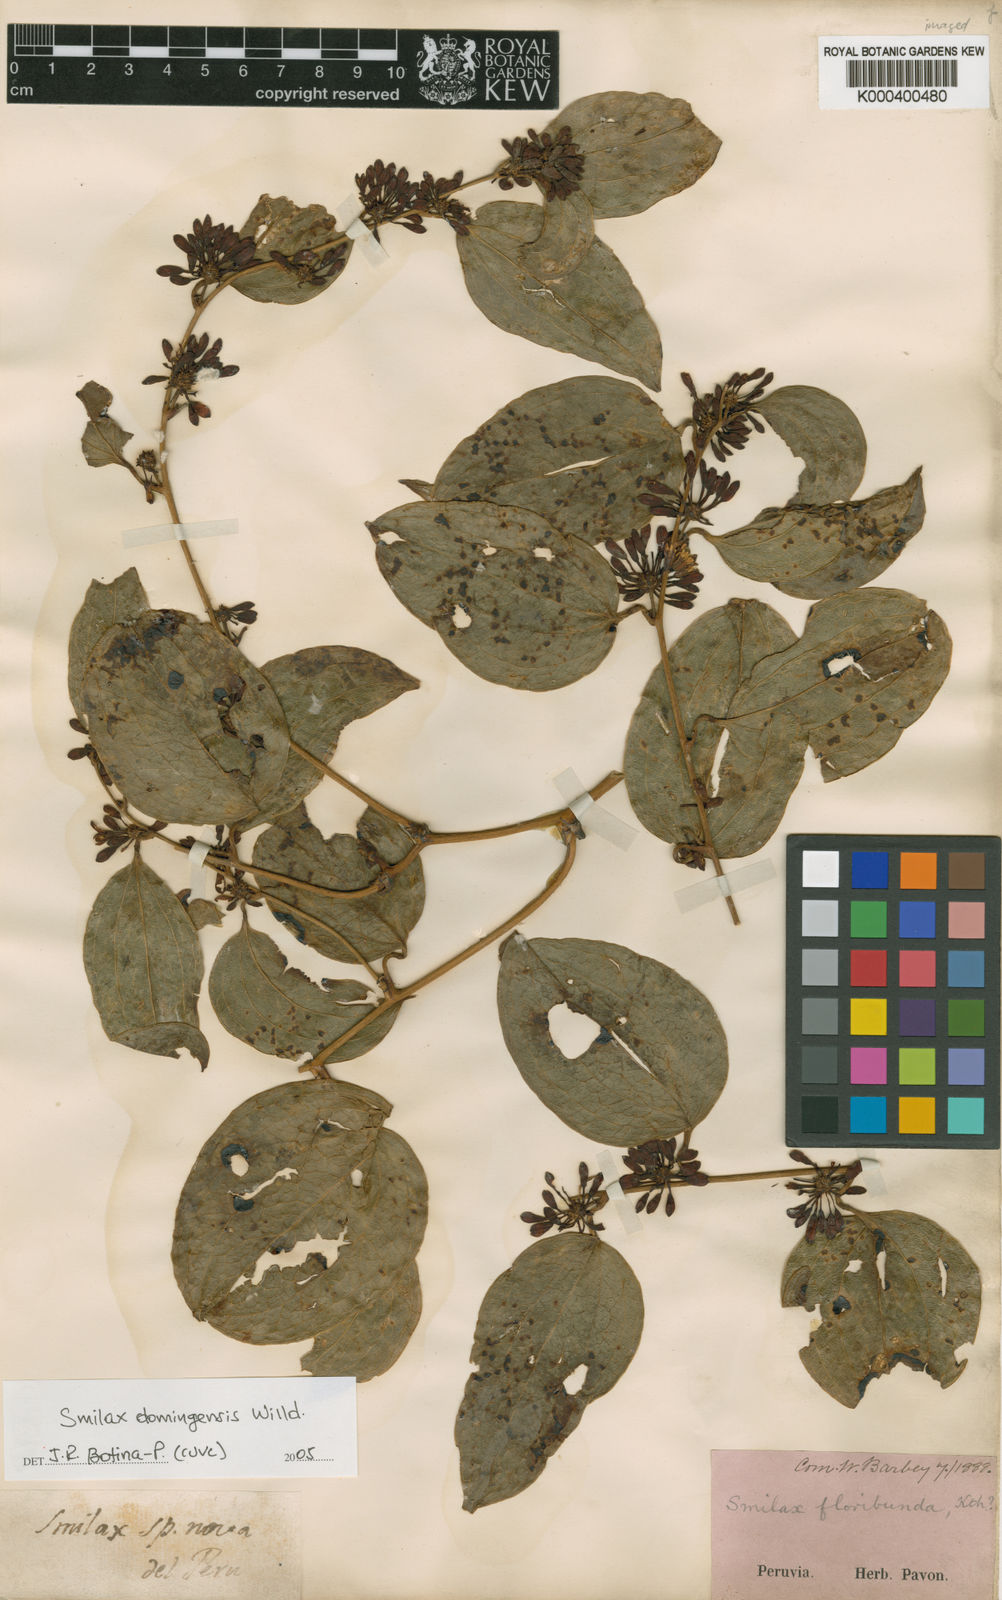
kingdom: Plantae
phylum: Tracheophyta
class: Liliopsida
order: Liliales
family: Smilacaceae
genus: Smilax
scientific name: Smilax domingensis
